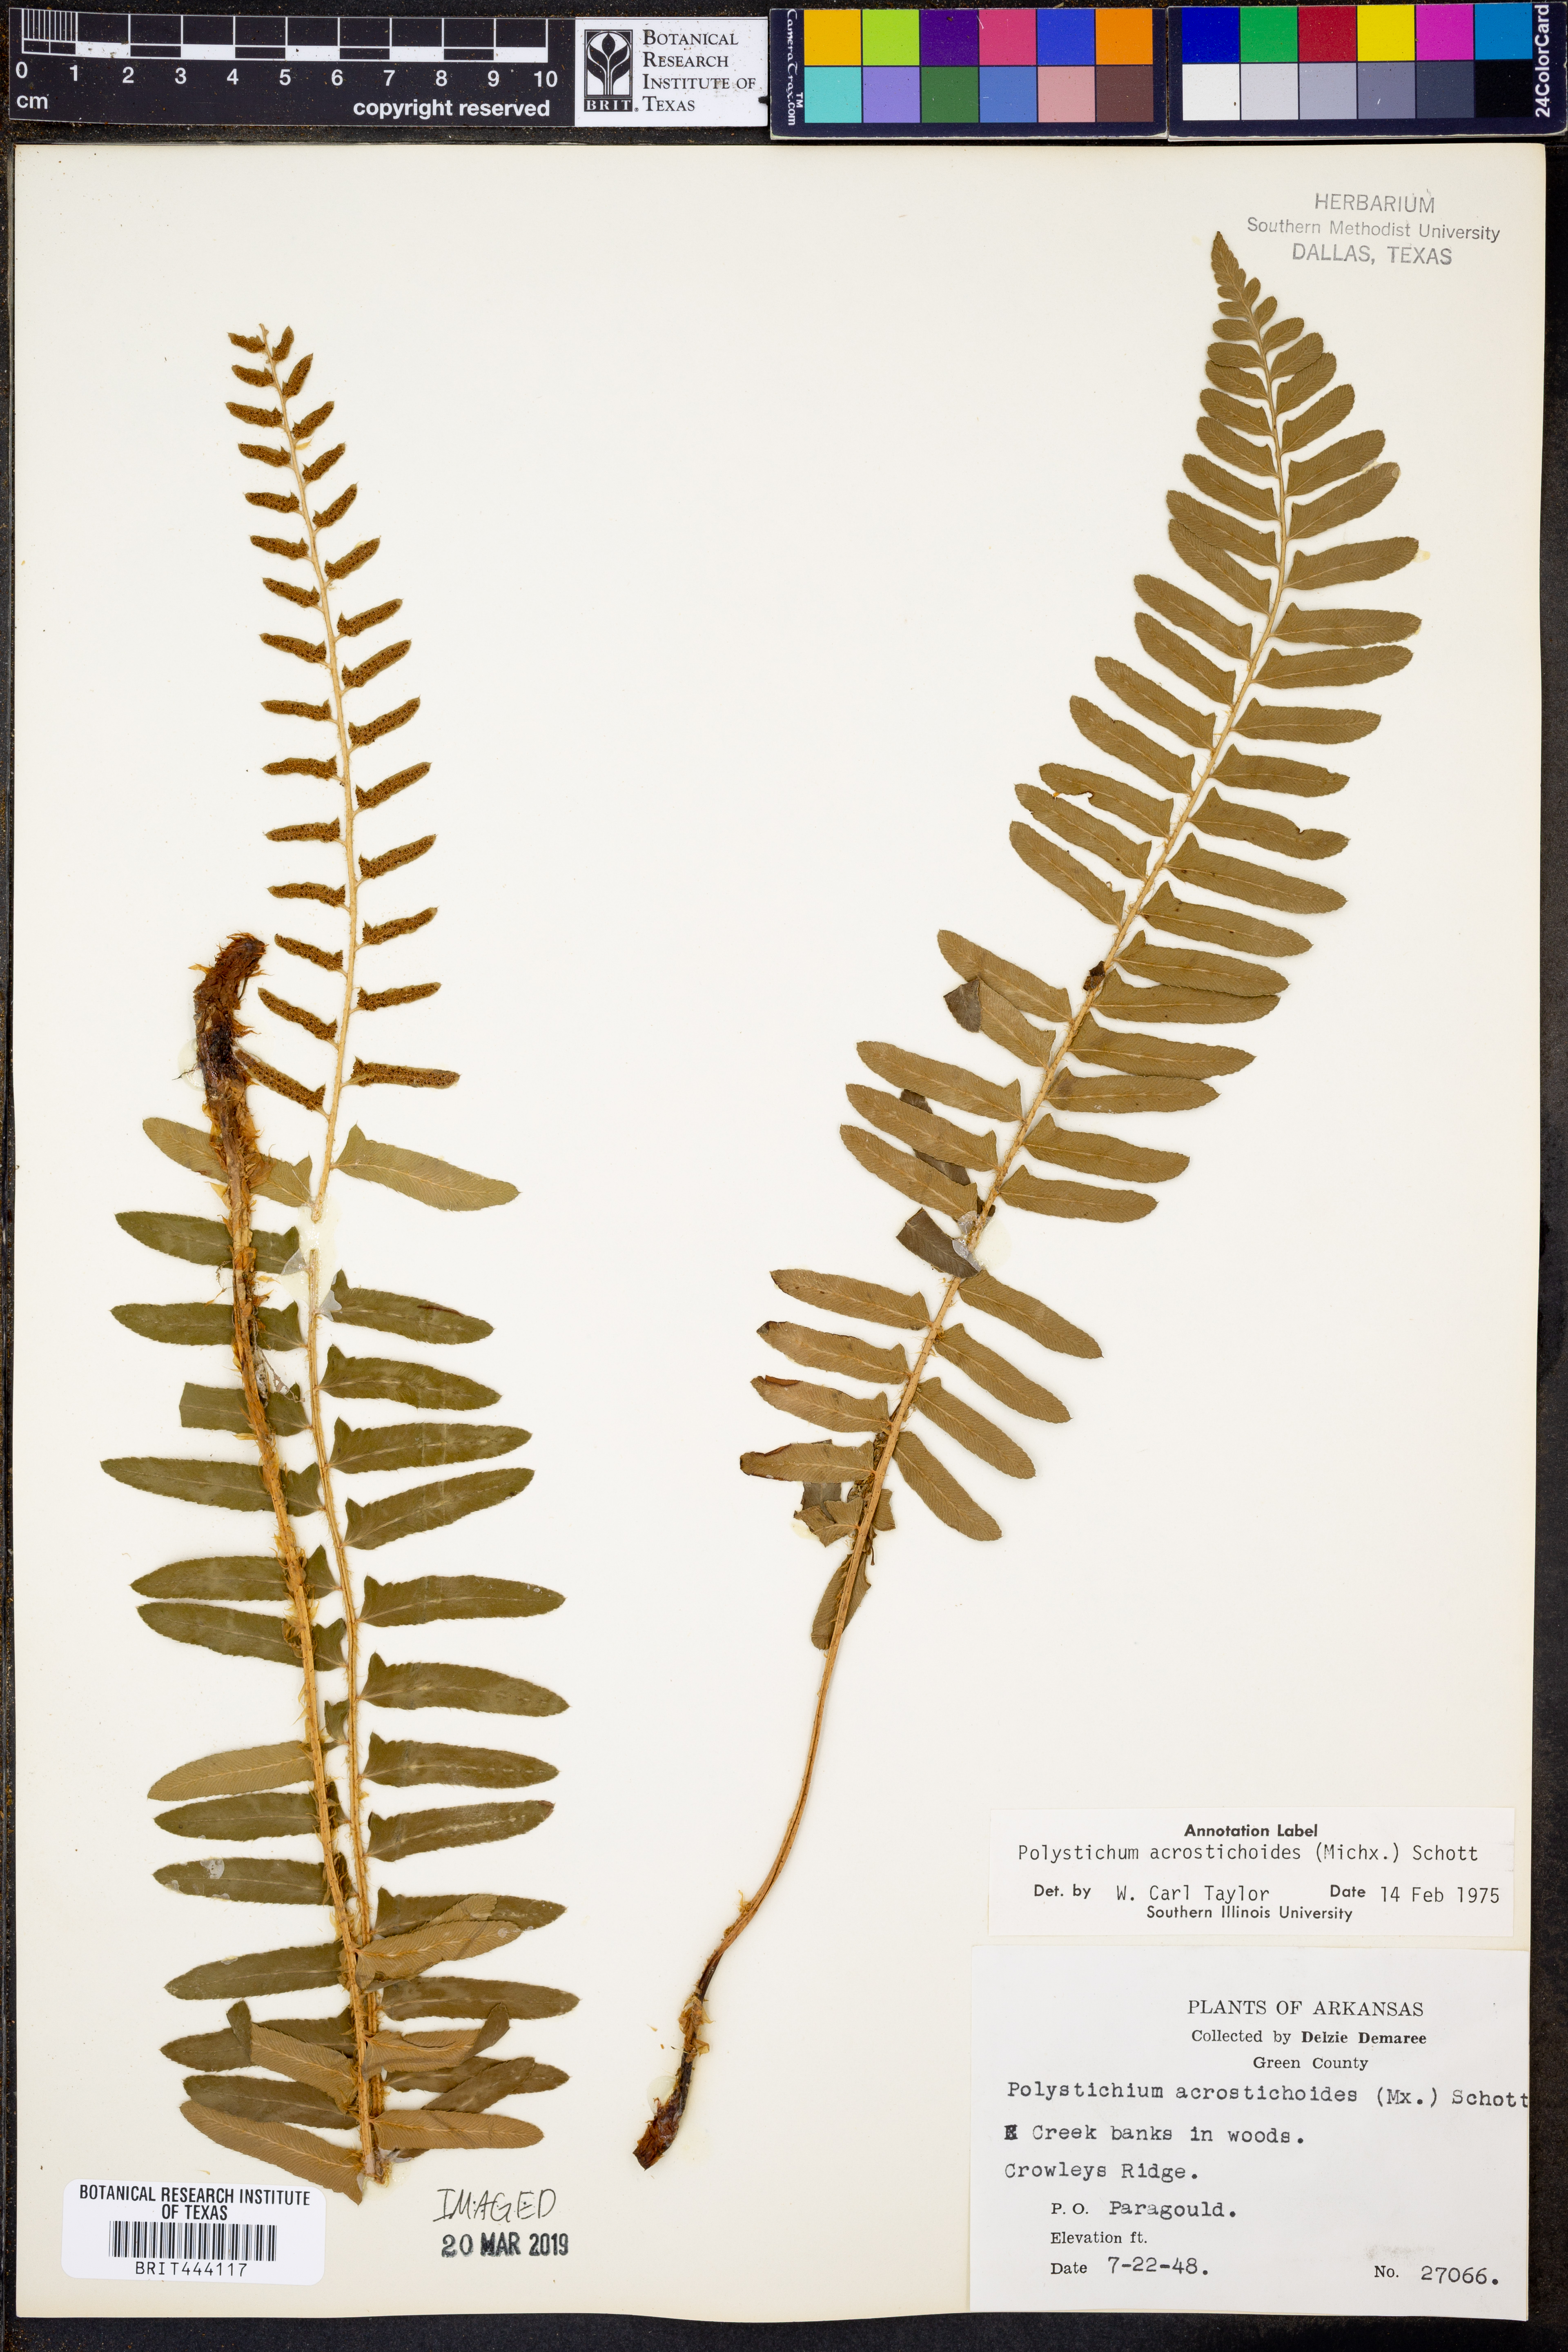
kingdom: Plantae
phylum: Tracheophyta
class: Polypodiopsida
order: Polypodiales
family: Dryopteridaceae
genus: Polystichum
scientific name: Polystichum acrostichoides
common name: Christmas fern
